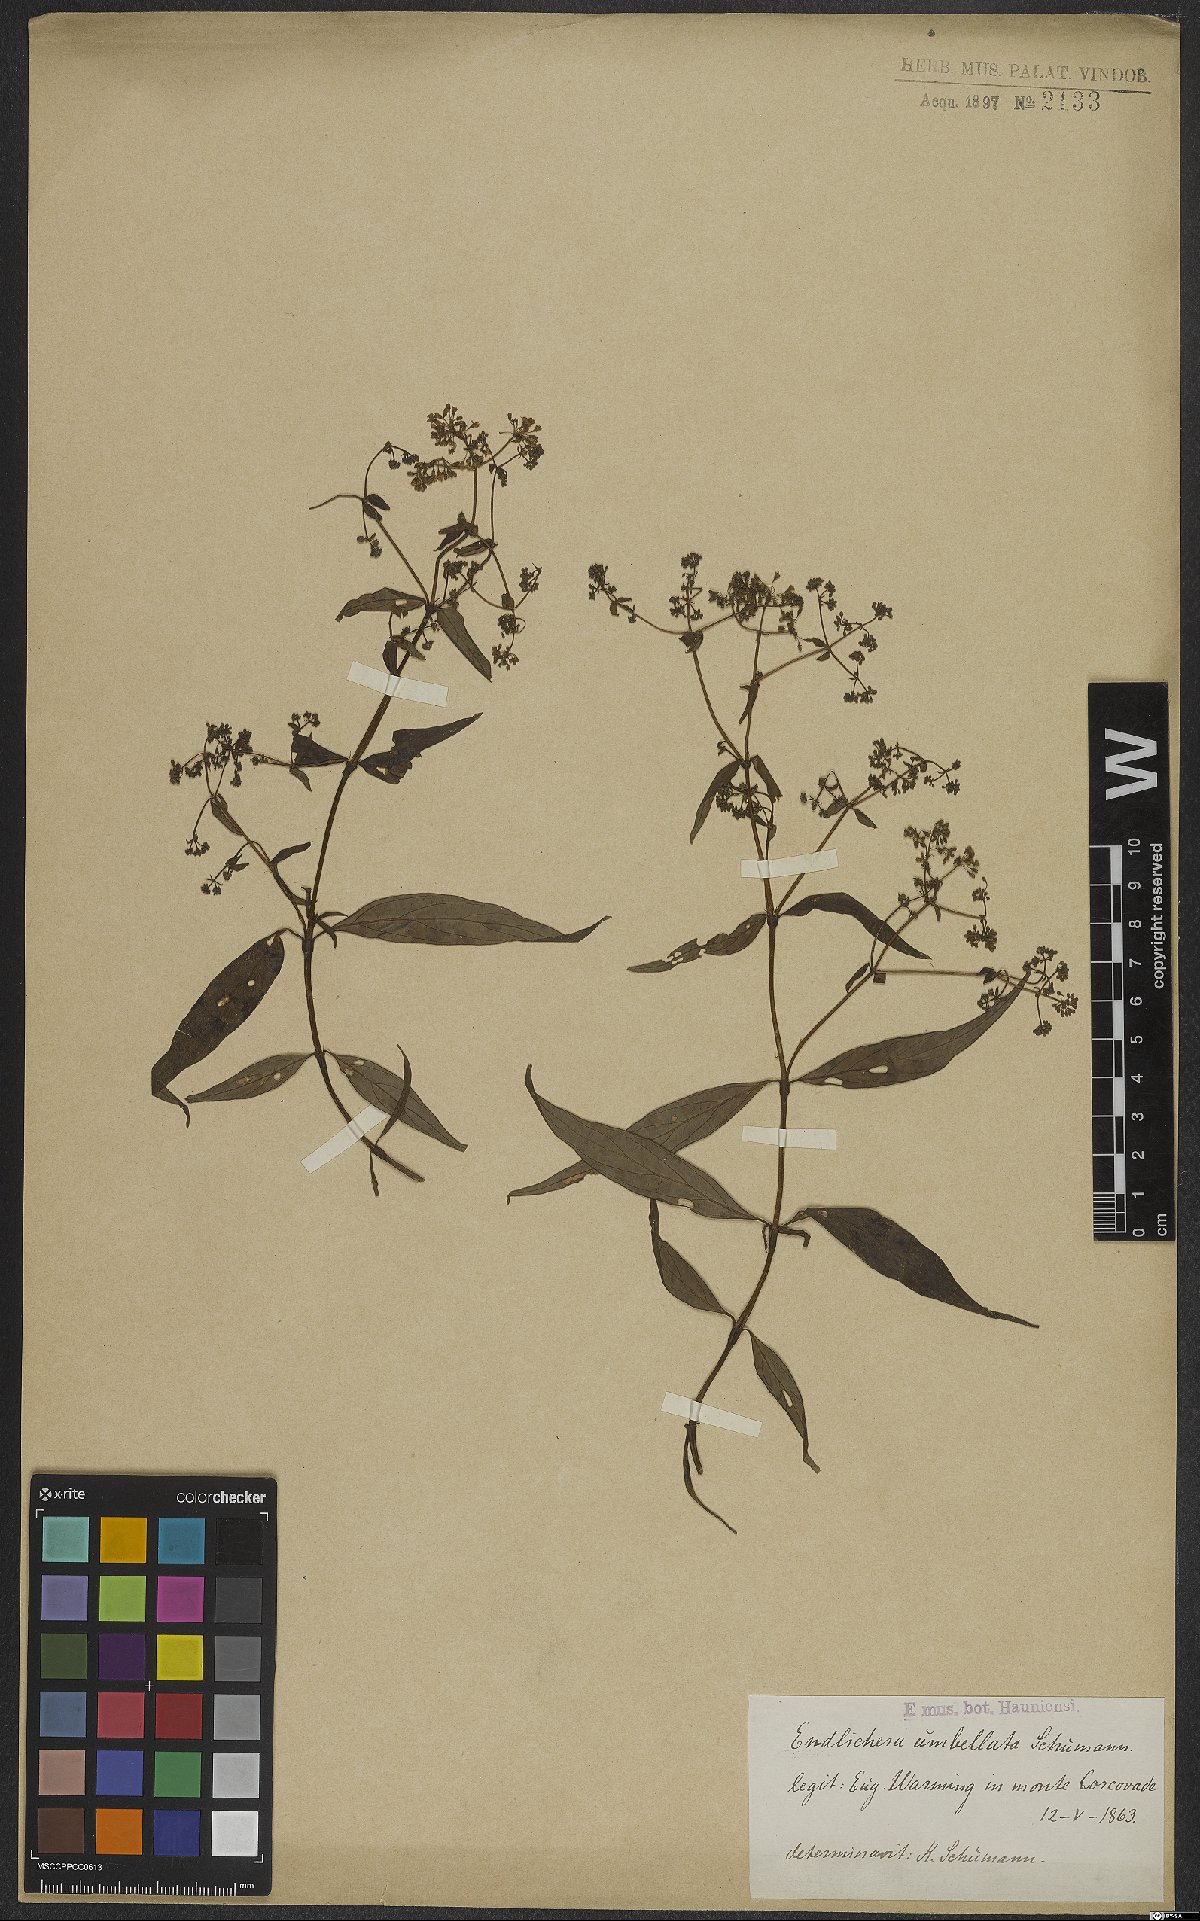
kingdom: Plantae
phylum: Tracheophyta
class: Magnoliopsida
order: Gentianales
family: Rubiaceae
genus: Emmeorhiza
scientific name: Emmeorhiza umbellata
